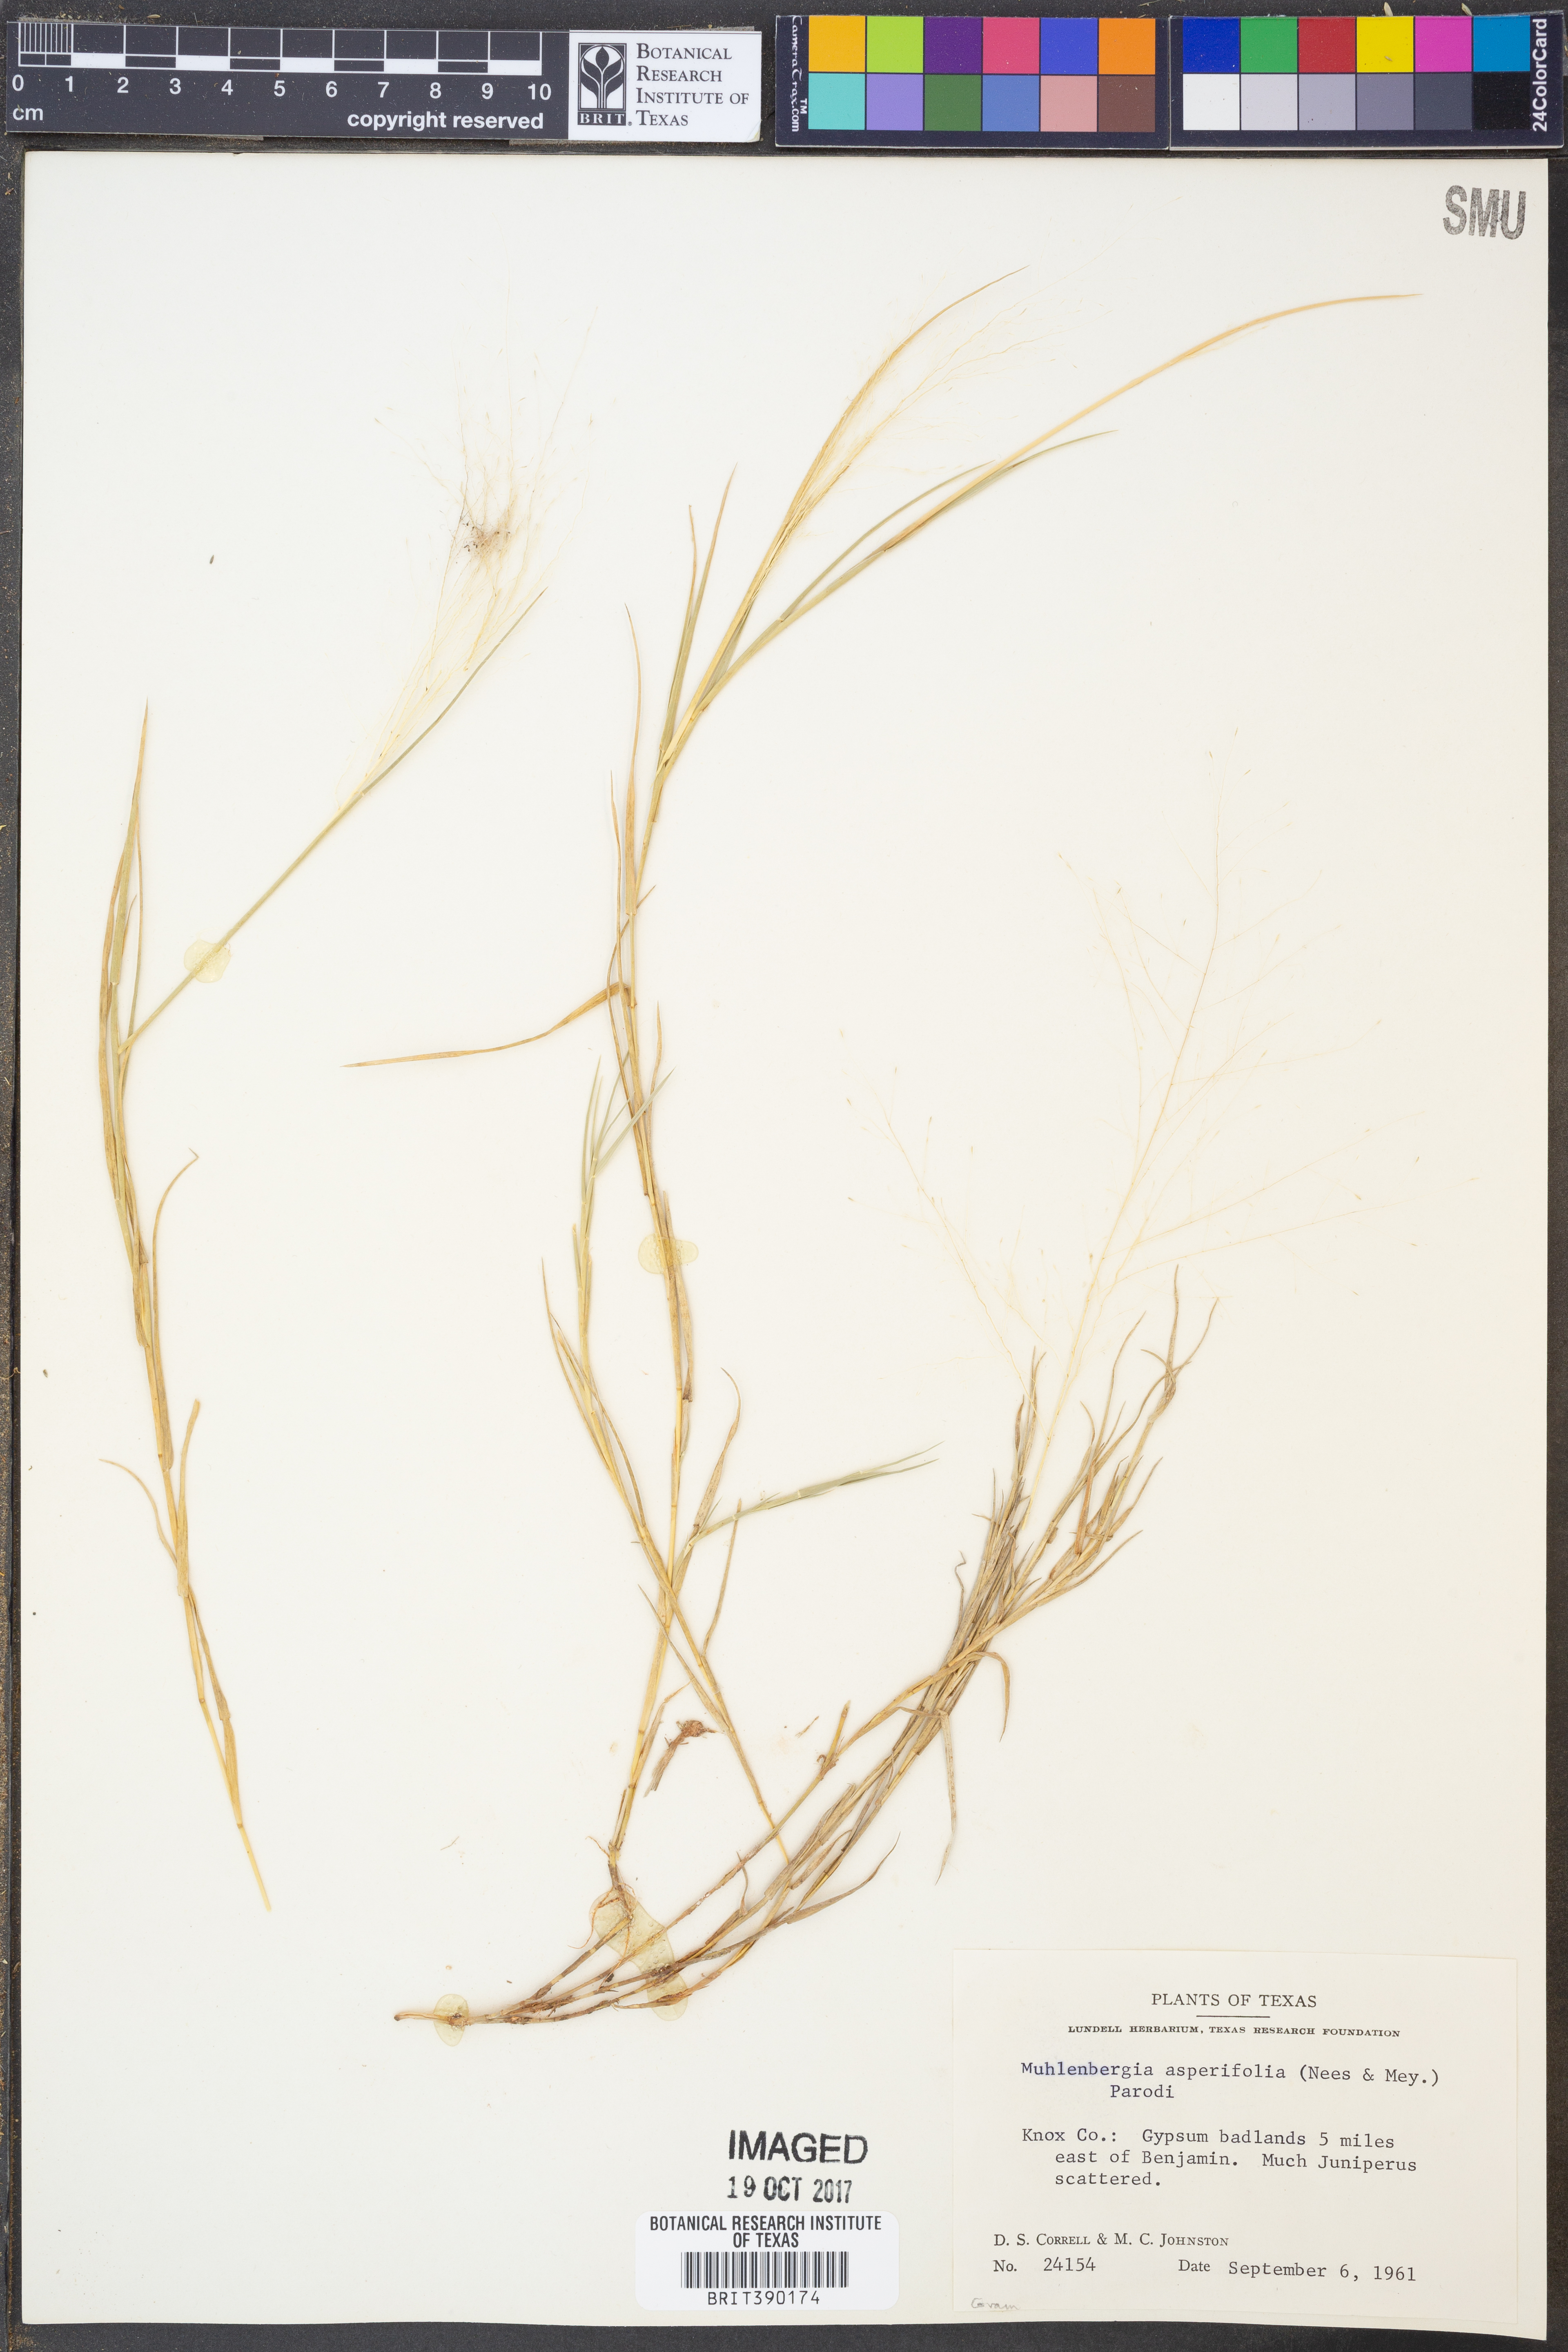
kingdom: Plantae
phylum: Tracheophyta
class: Liliopsida
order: Poales
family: Poaceae
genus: Muhlenbergia
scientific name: Muhlenbergia asperifolia
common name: Alkali muhly
